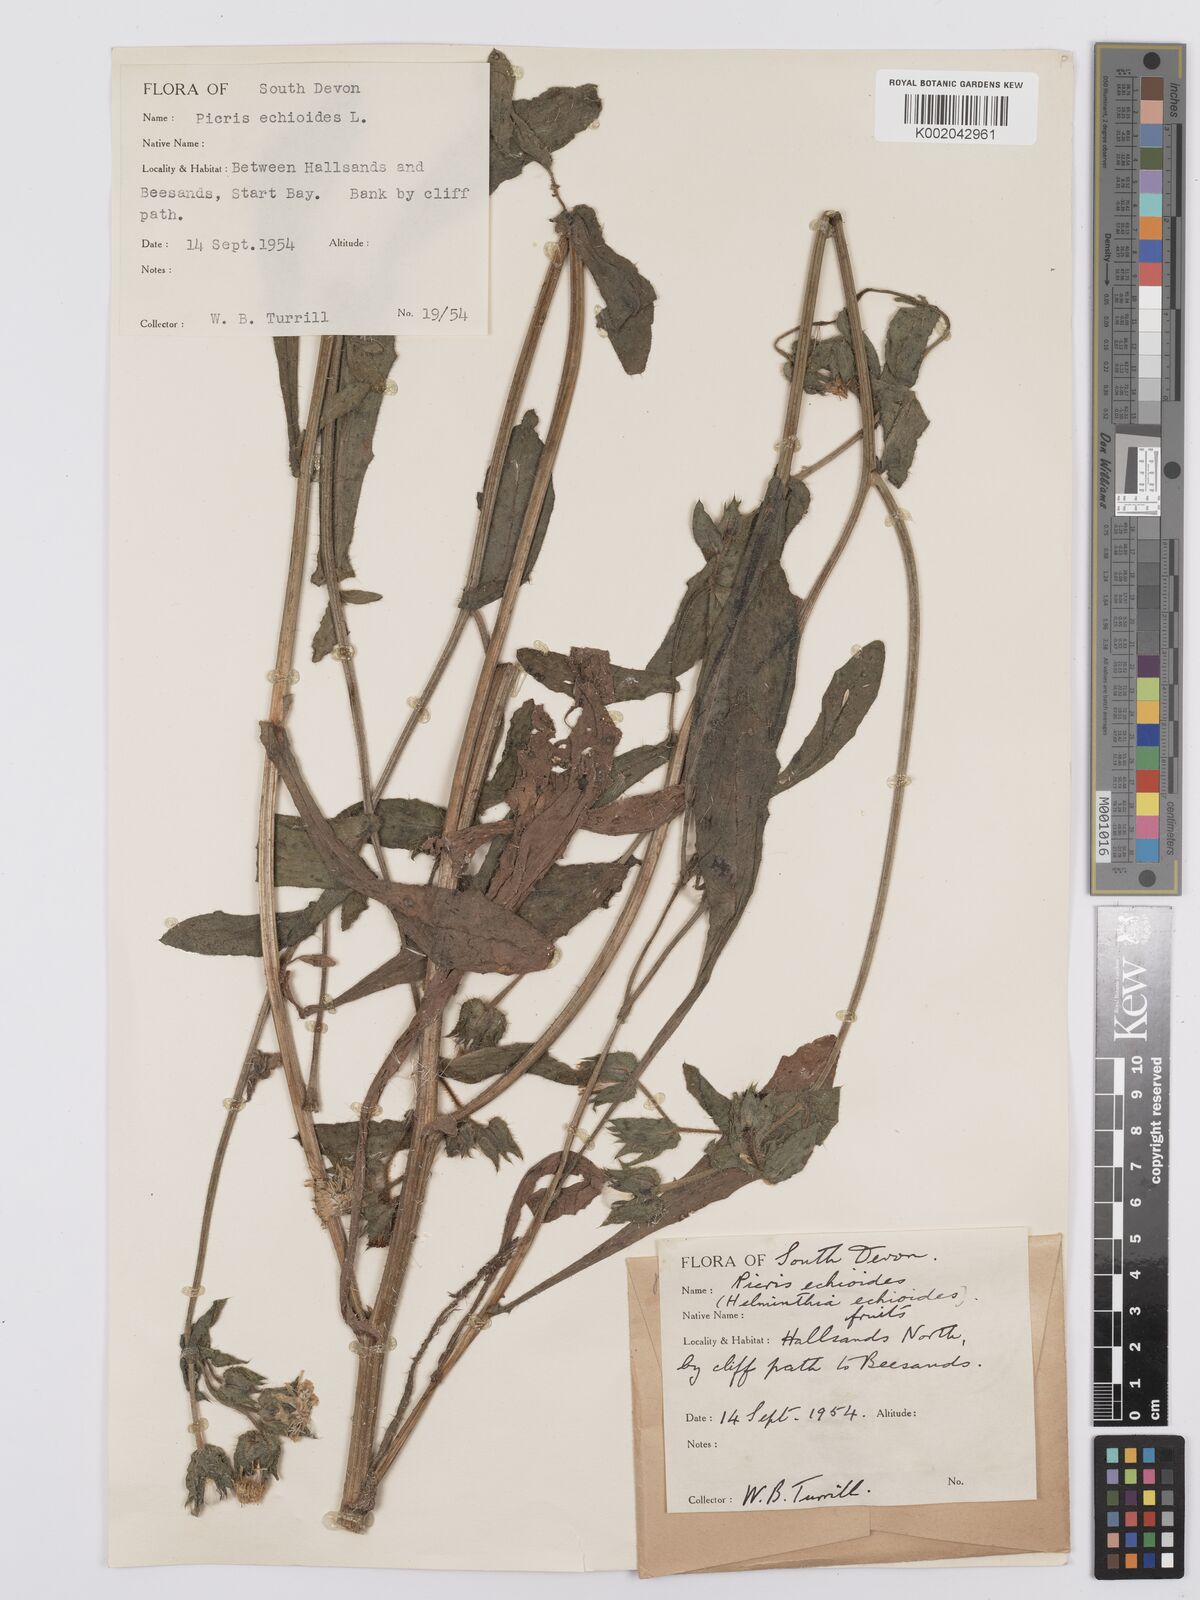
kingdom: Plantae
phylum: Tracheophyta
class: Magnoliopsida
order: Asterales
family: Asteraceae
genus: Helminthotheca
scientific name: Helminthotheca echioides
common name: Ox-tongue
